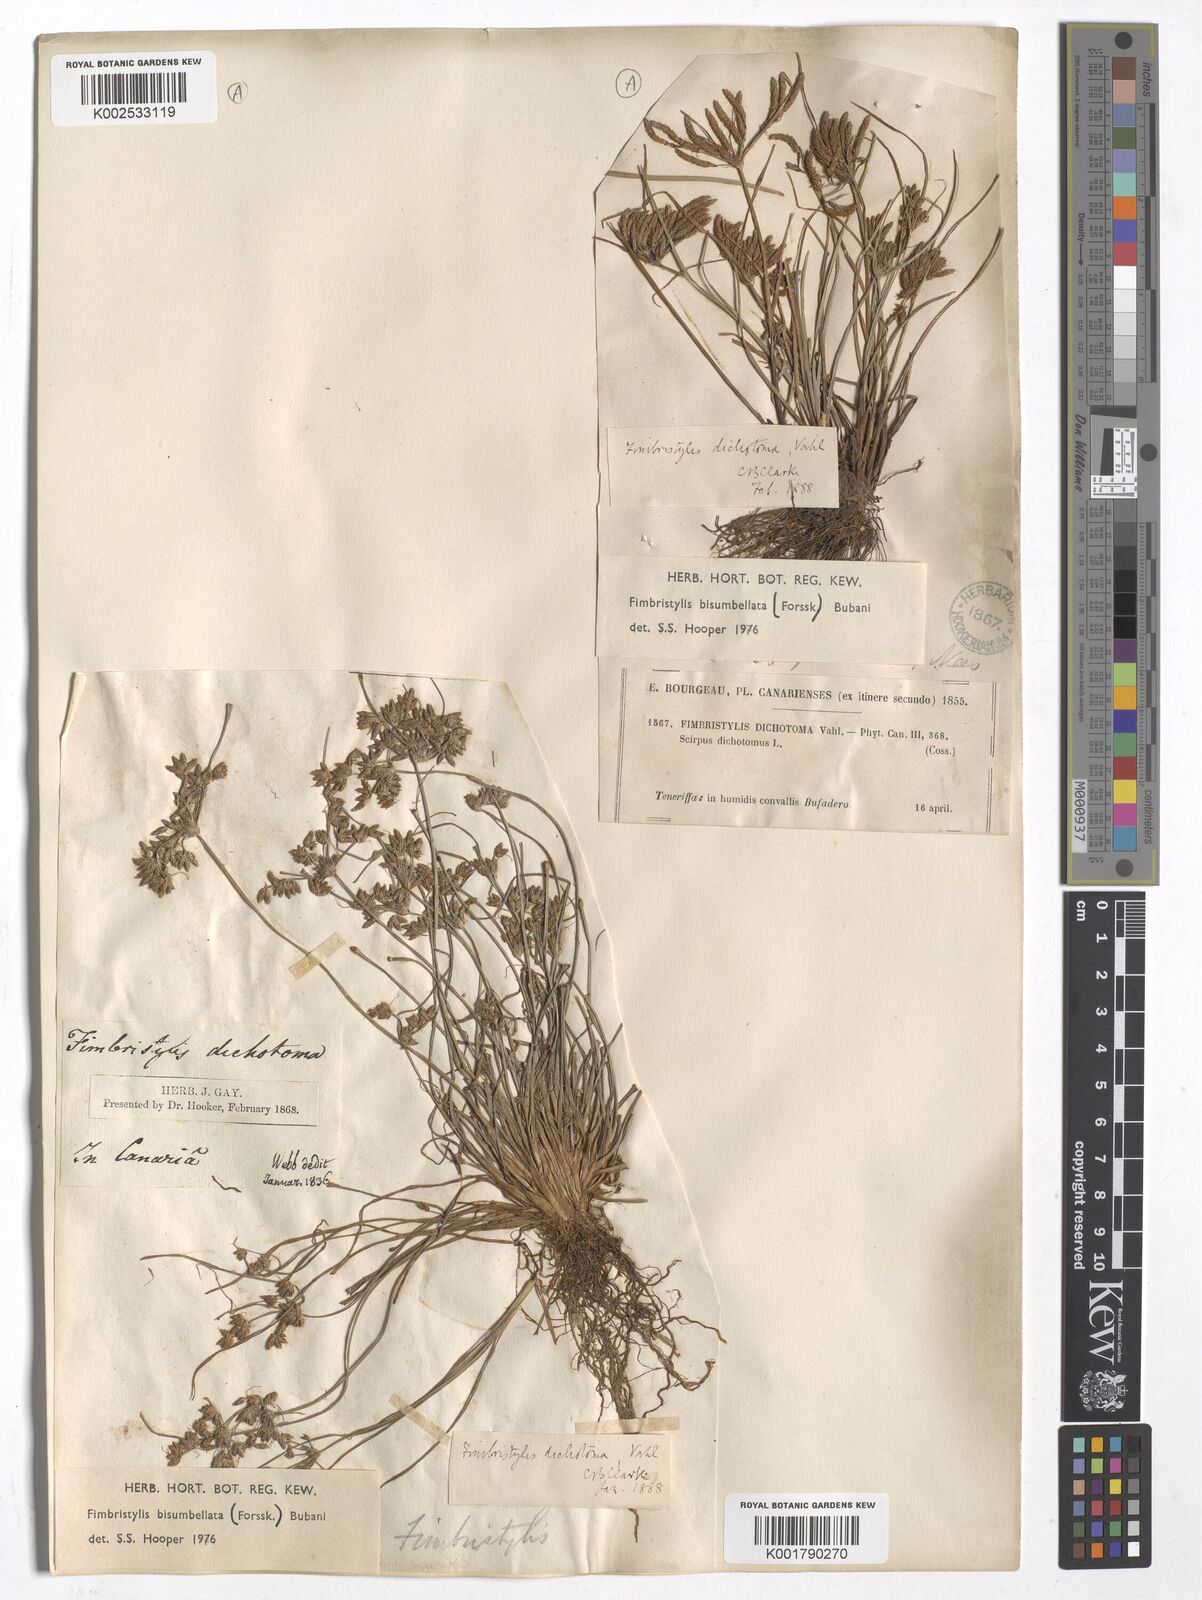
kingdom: Plantae
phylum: Tracheophyta
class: Liliopsida
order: Poales
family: Cyperaceae
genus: Fimbristylis
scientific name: Fimbristylis bisumbellata
